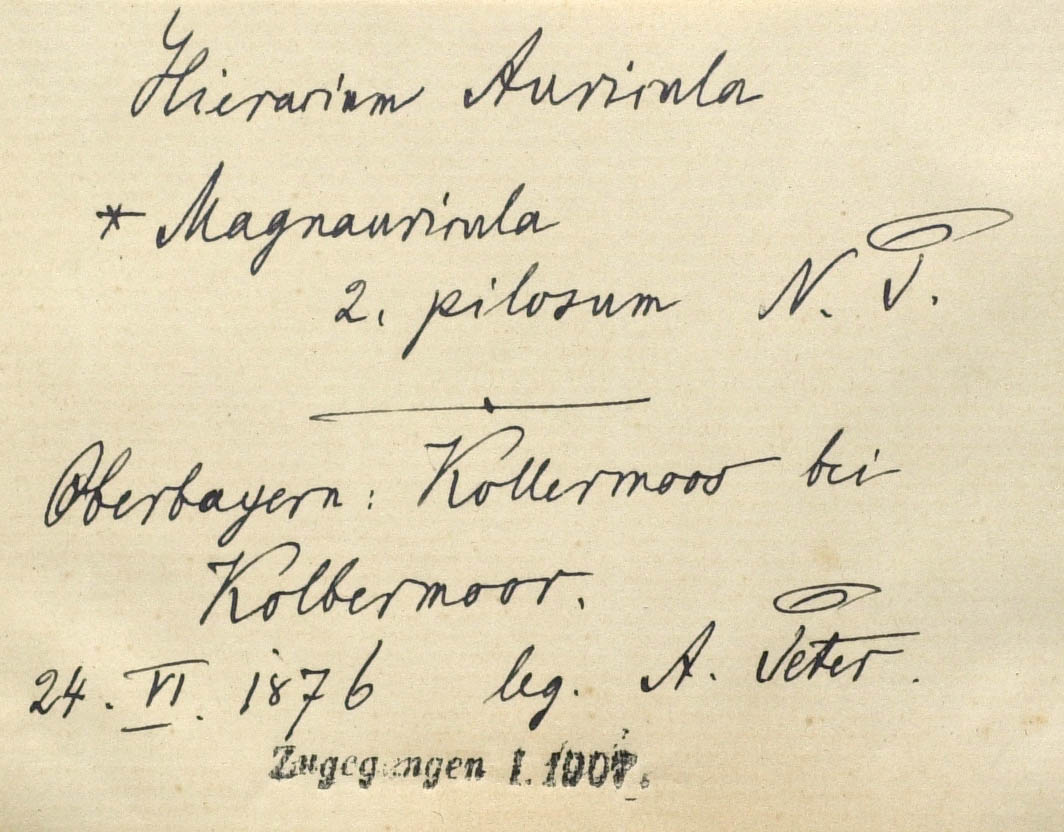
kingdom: Plantae
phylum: Tracheophyta
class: Magnoliopsida
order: Asterales
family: Asteraceae
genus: Pilosella
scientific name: Pilosella lactucella
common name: Glaucous fox-and-cubs
